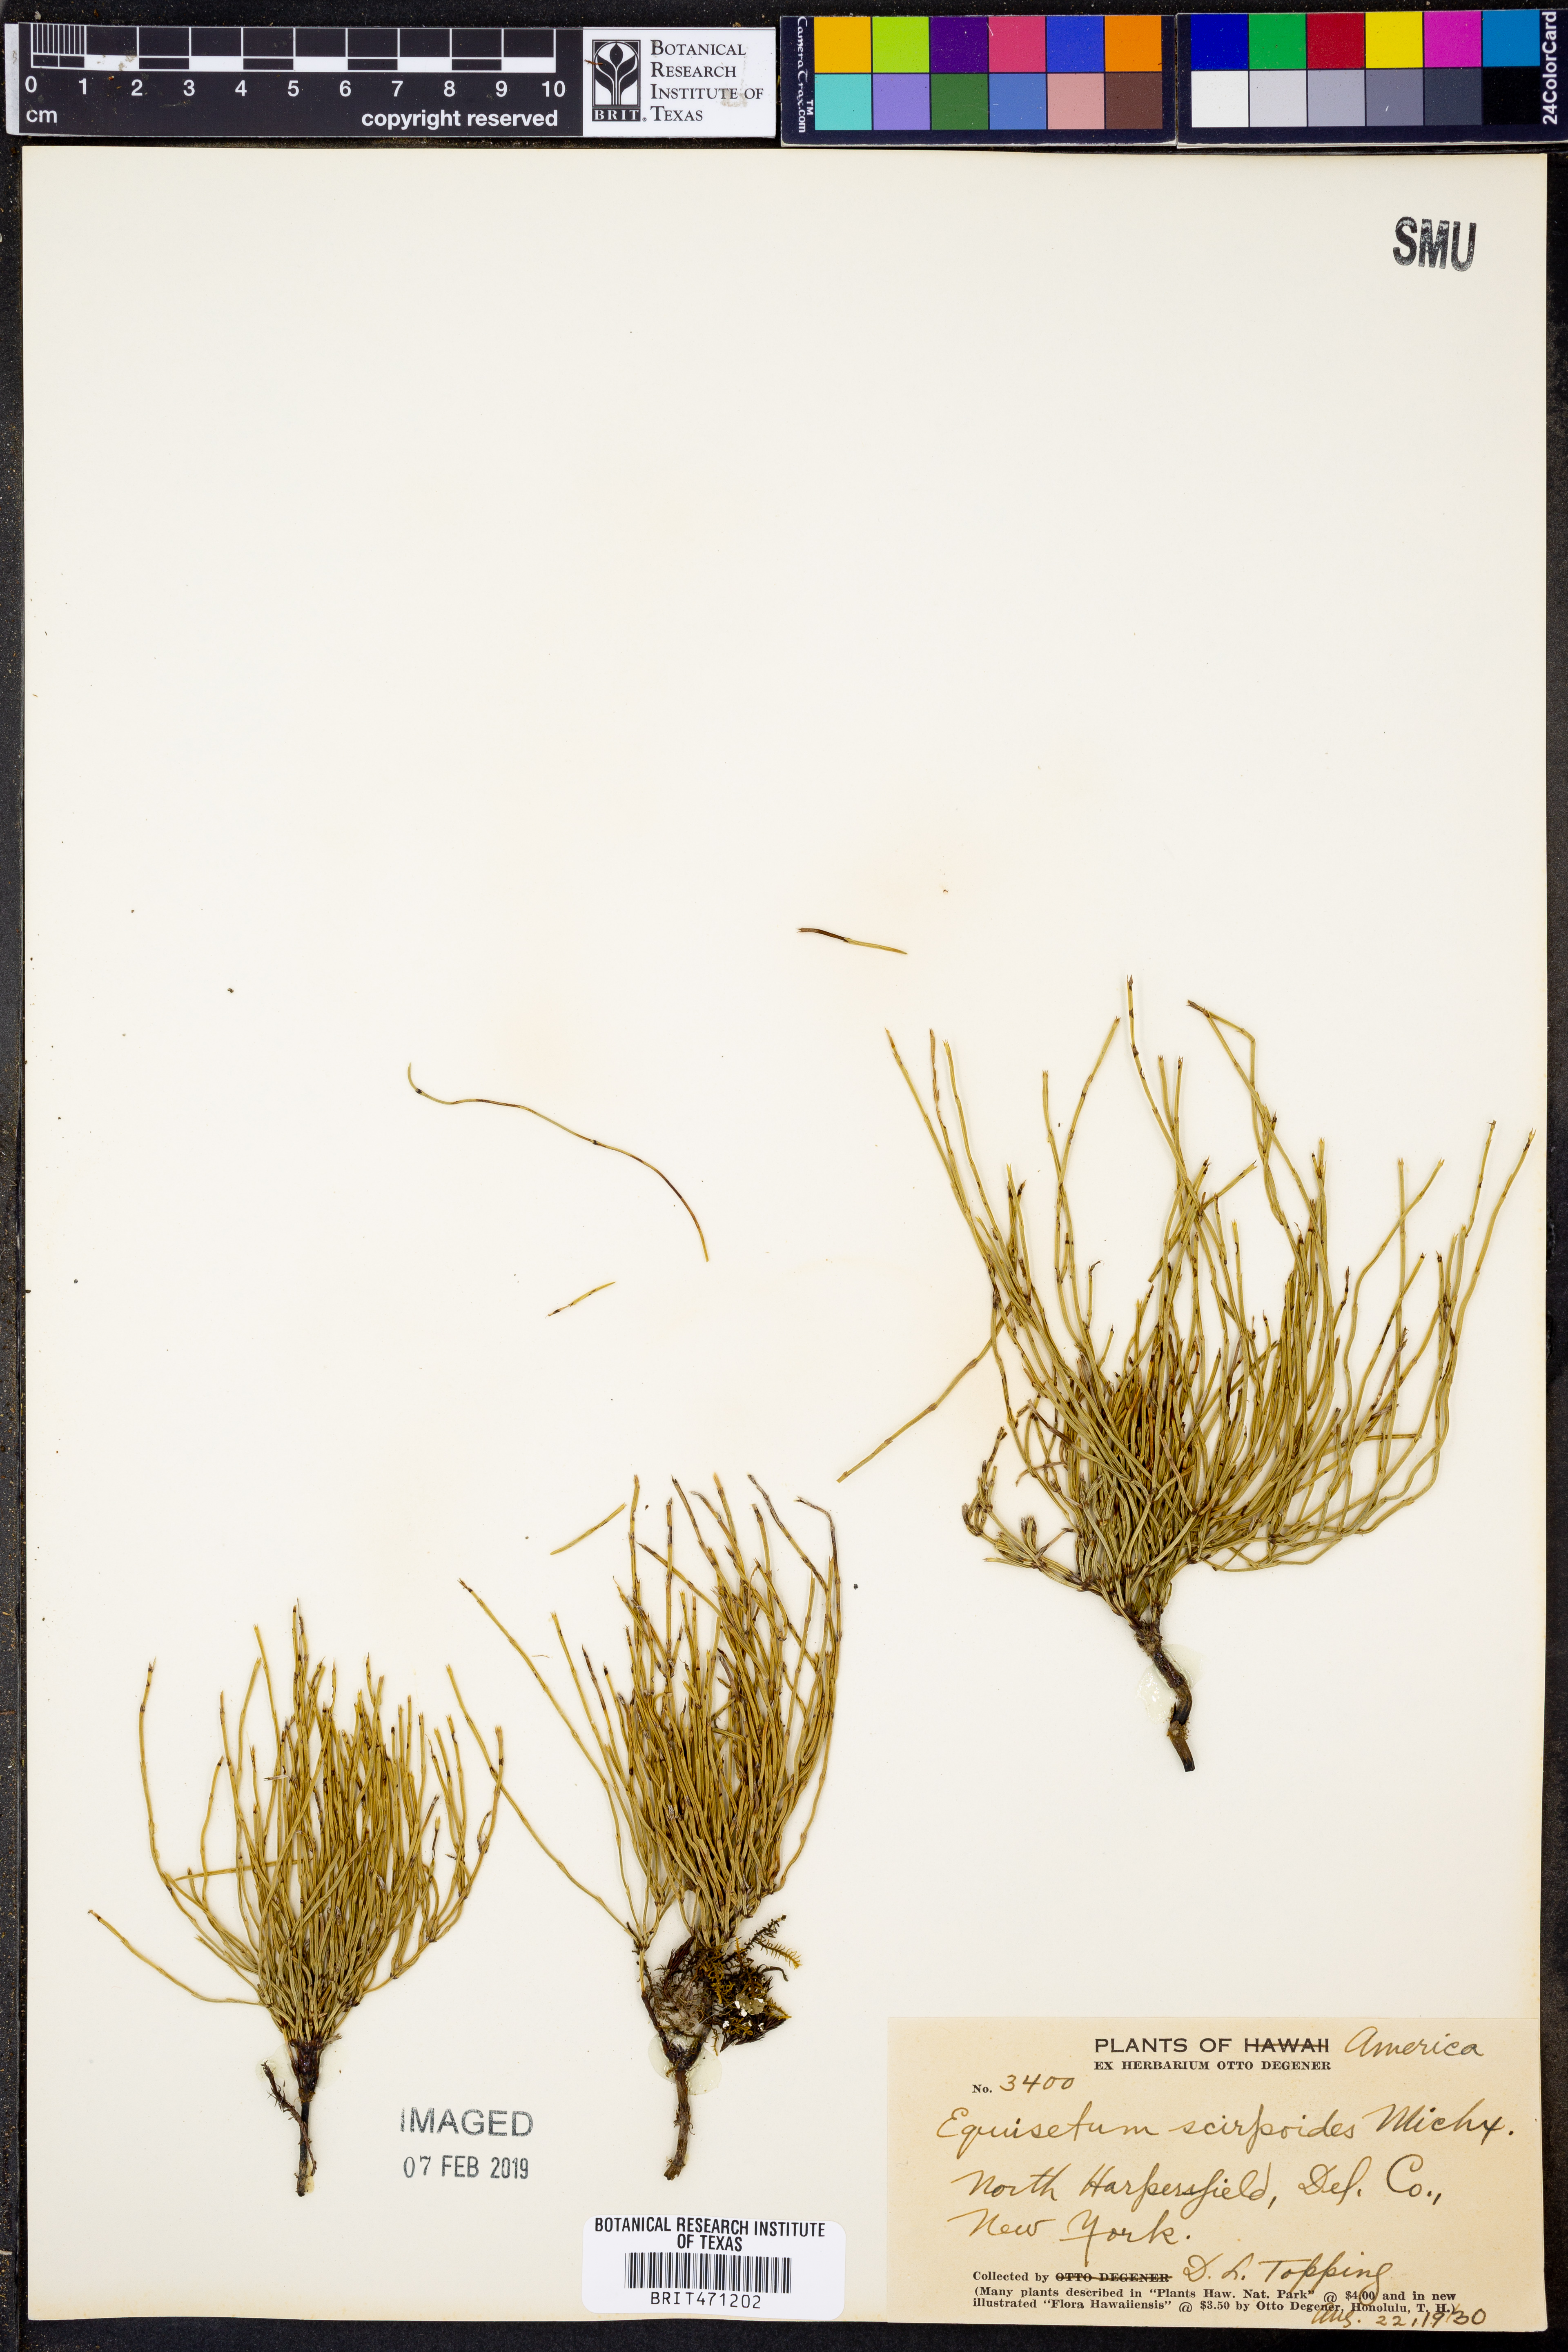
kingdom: Plantae
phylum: Tracheophyta
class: Polypodiopsida
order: Equisetales
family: Equisetaceae
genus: Equisetum
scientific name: Equisetum scirpoides
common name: Delicate horsetail
